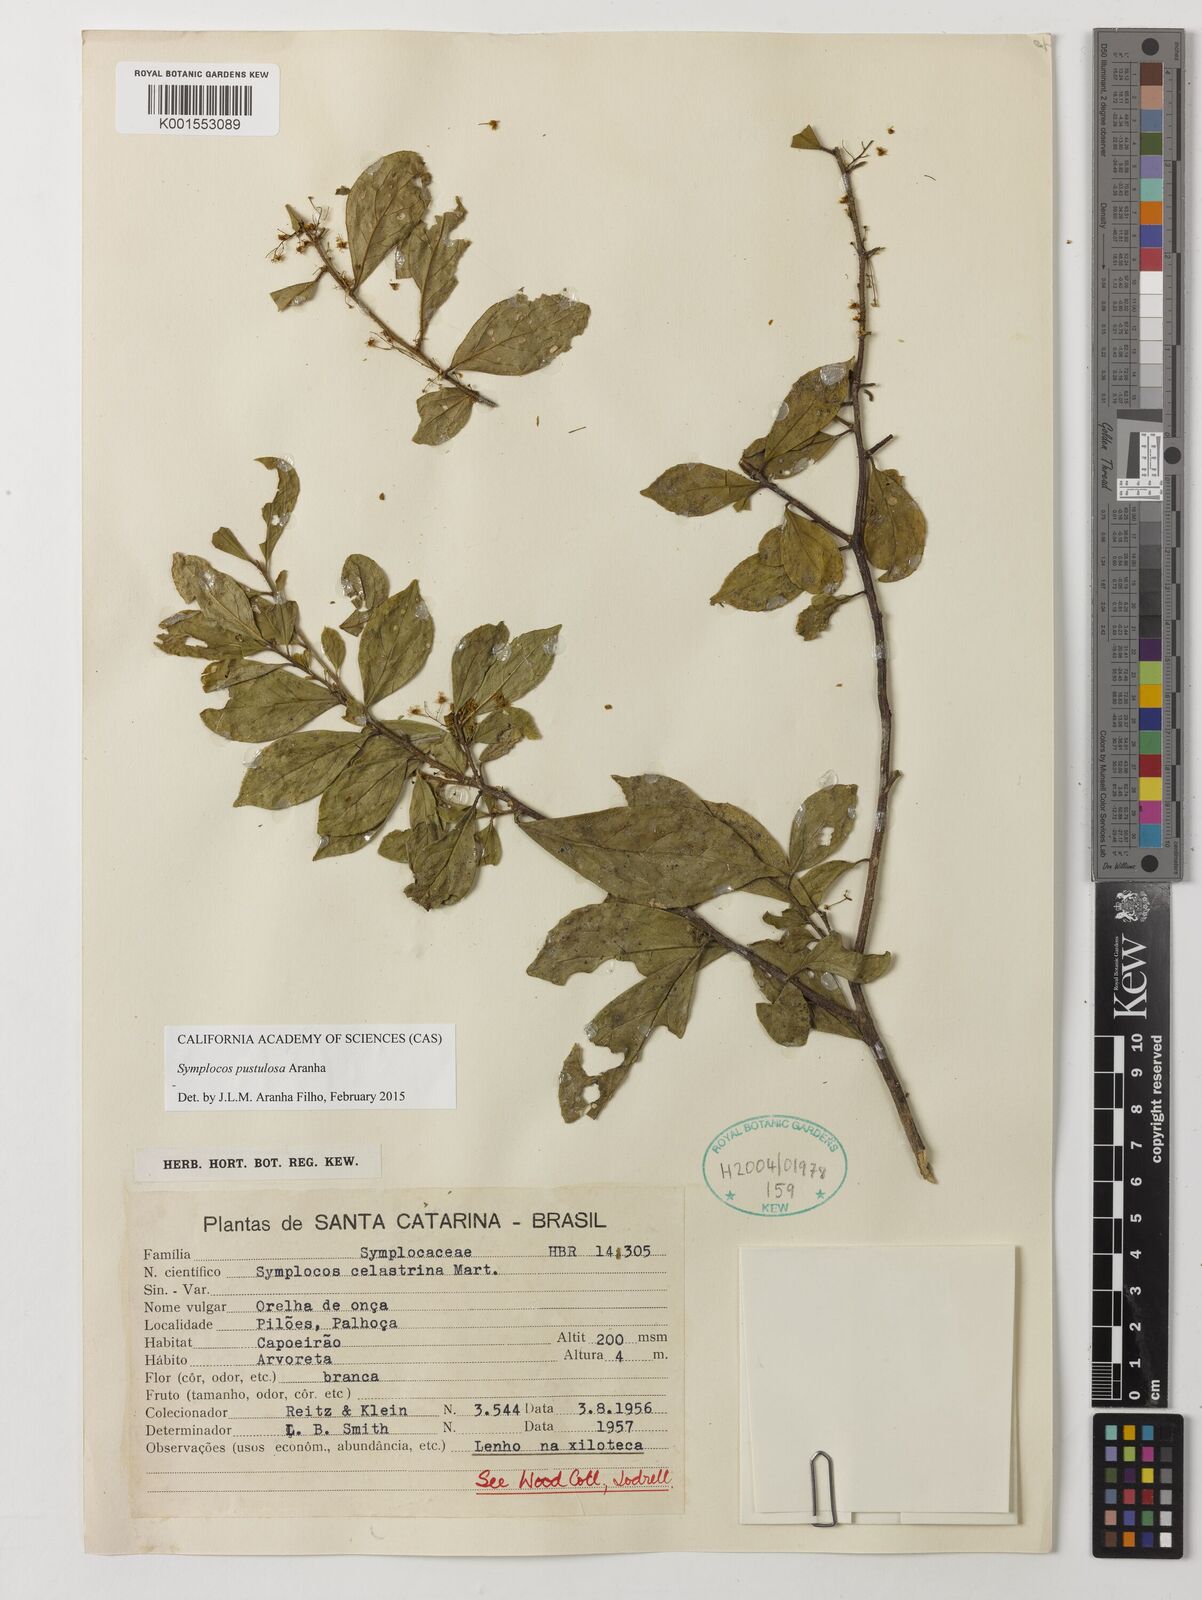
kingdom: Plantae
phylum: Tracheophyta
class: Magnoliopsida
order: Ericales
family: Symplocaceae
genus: Symplocos
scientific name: Symplocos pustulosa
